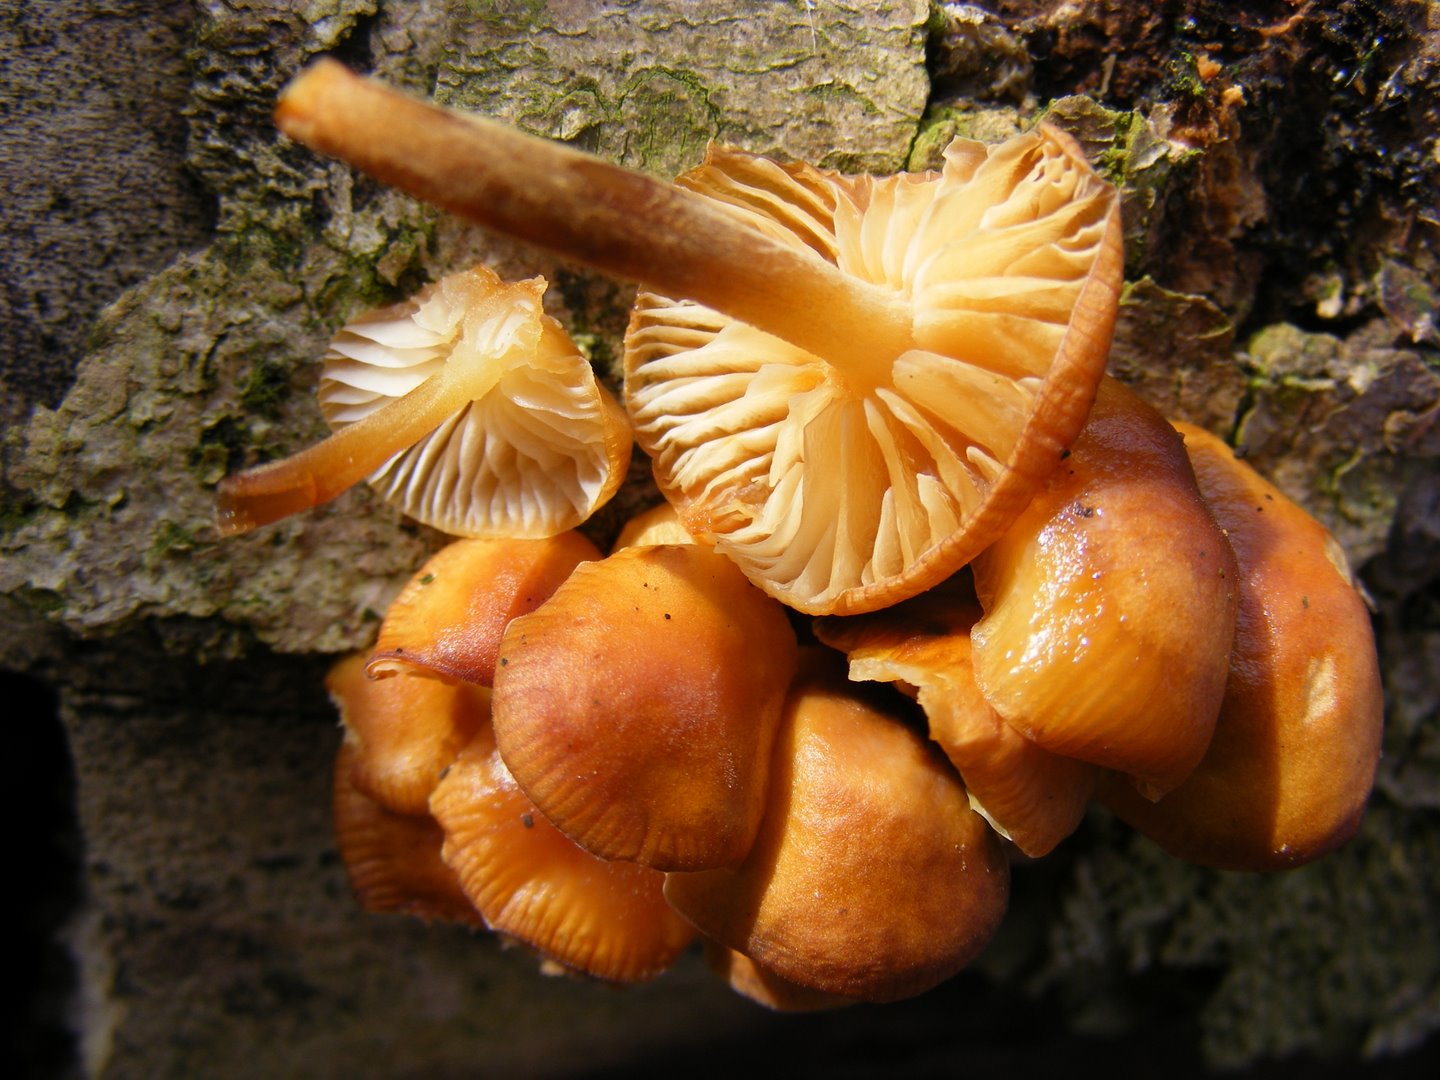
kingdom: Fungi
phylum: Basidiomycota
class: Agaricomycetes
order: Agaricales
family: Physalacriaceae
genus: Flammulina
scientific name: Flammulina velutipes
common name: gul fløjlsfod
